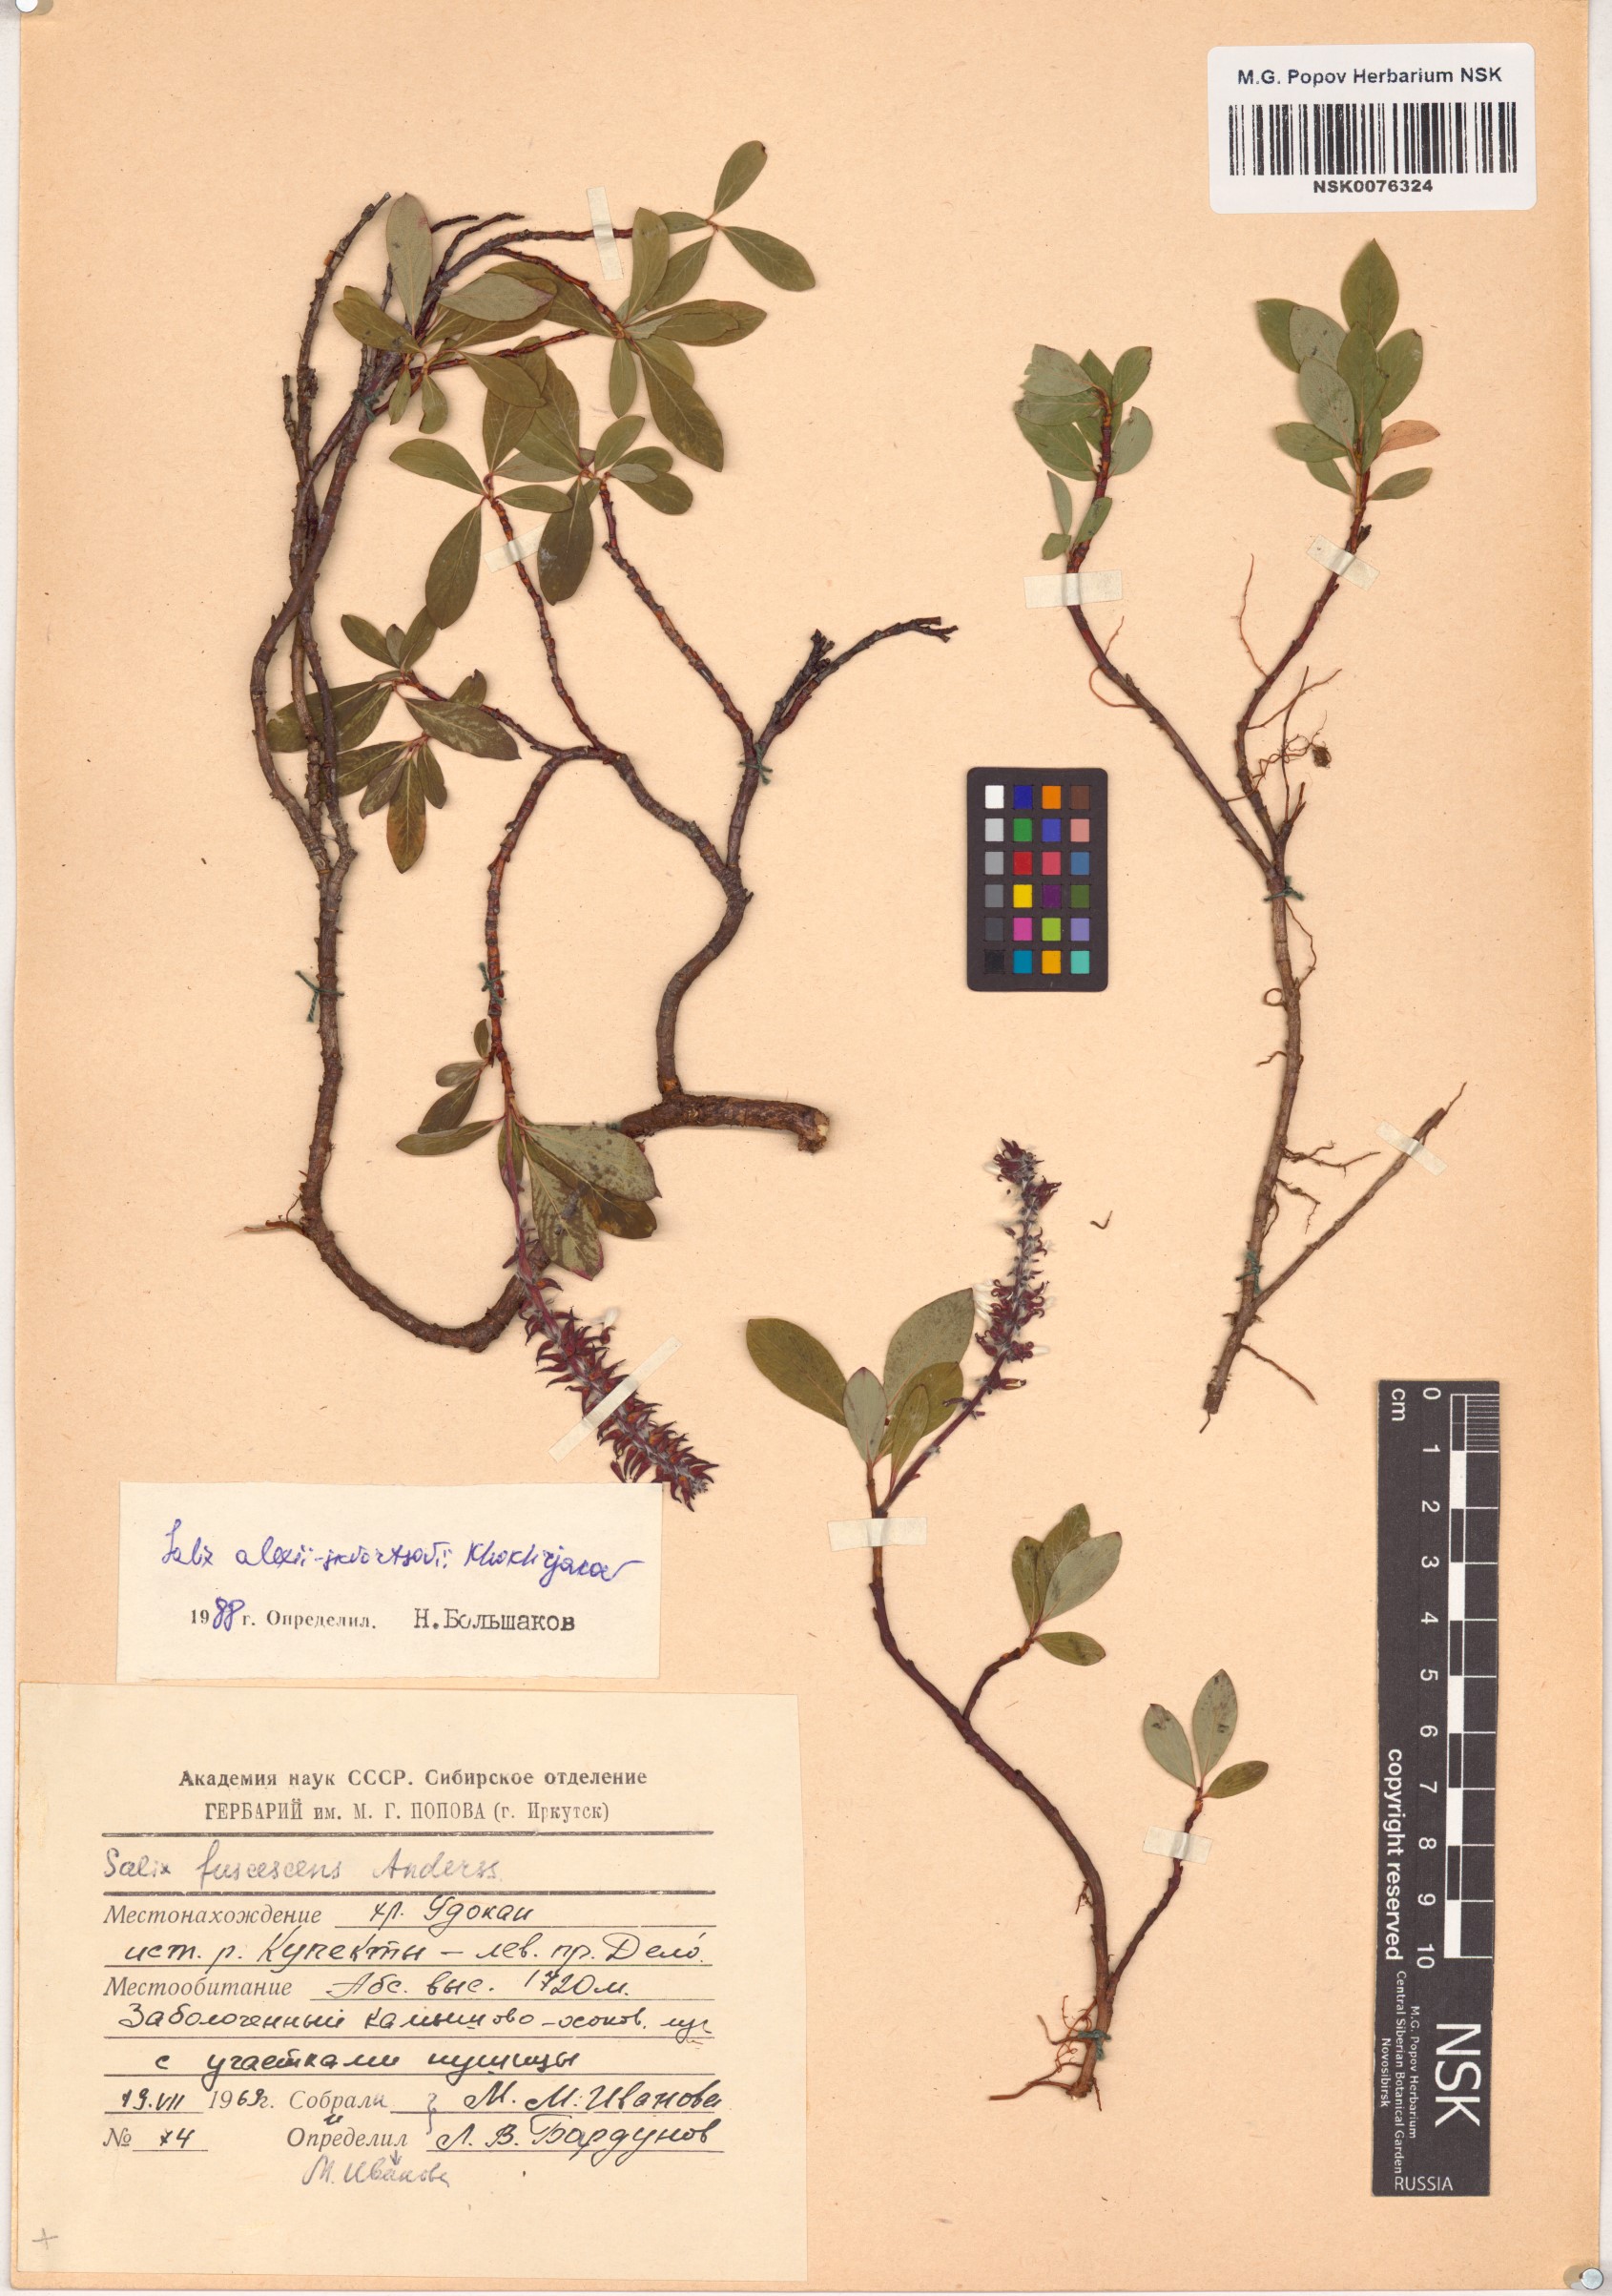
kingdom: Plantae
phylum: Tracheophyta
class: Magnoliopsida
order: Malpighiales
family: Salicaceae
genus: Salix
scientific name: Salix alexii-skvortzovii
